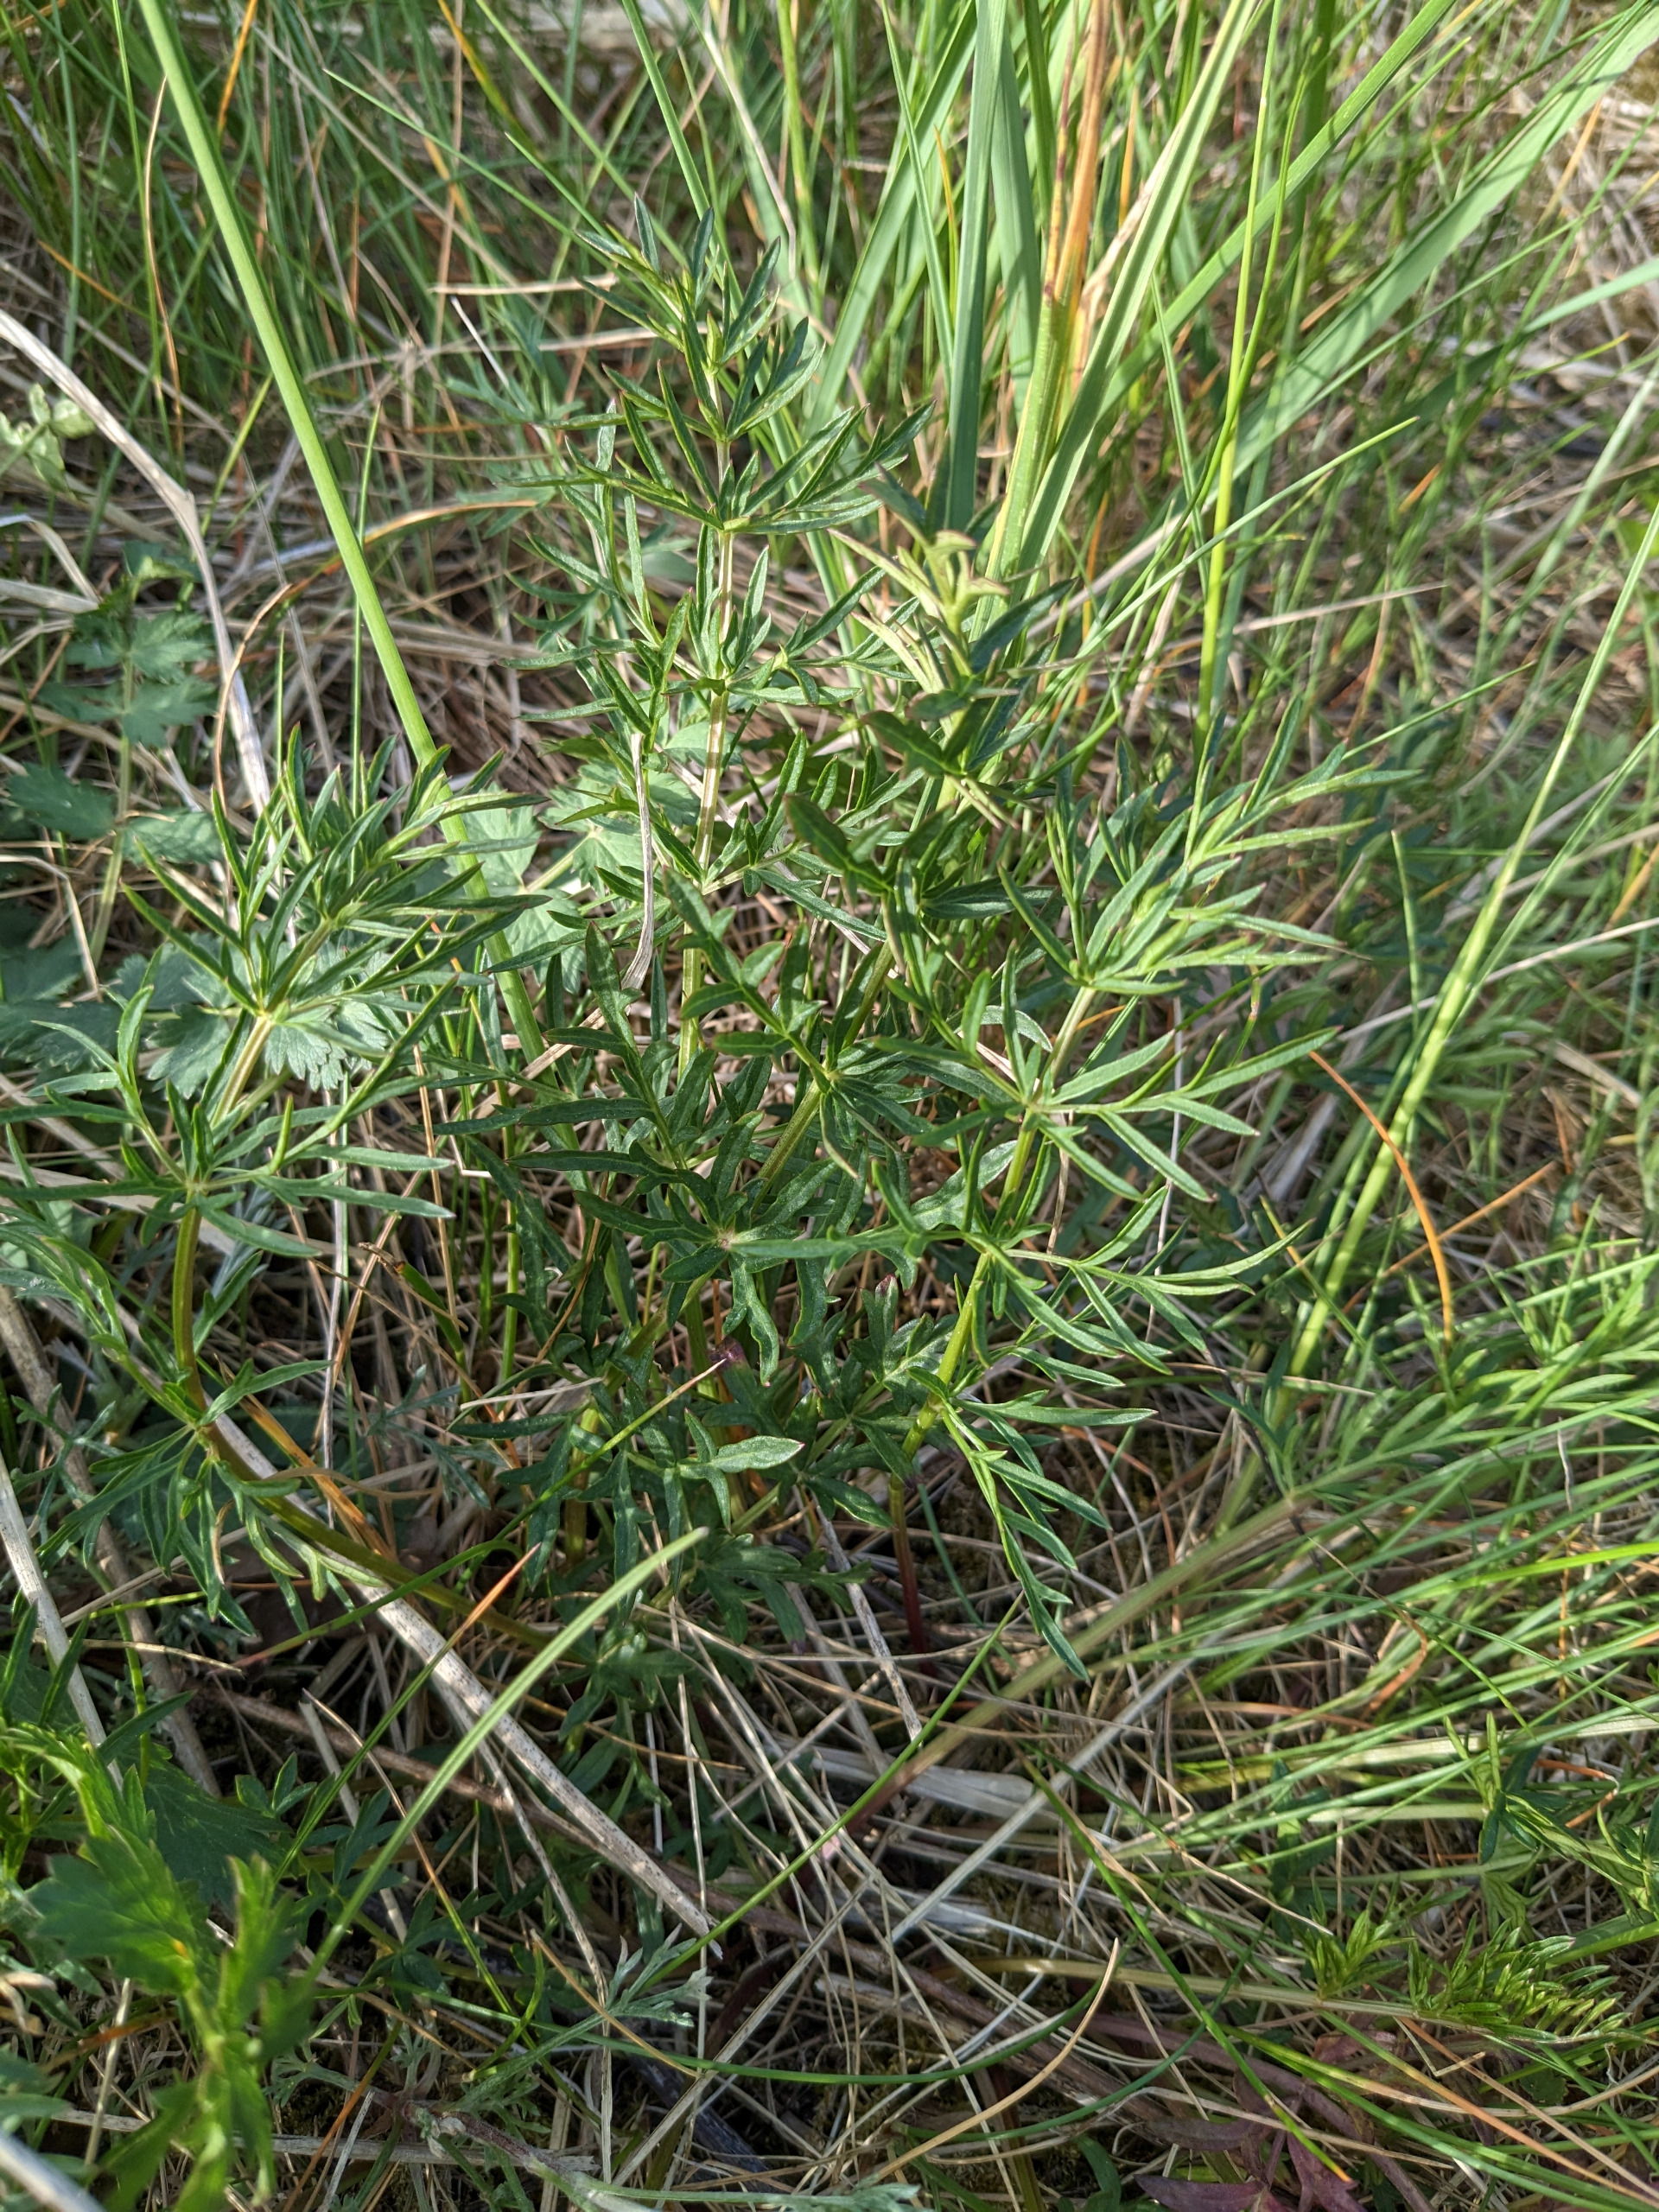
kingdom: Plantae
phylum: Tracheophyta
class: Magnoliopsida
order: Apiales
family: Apiaceae
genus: Pimpinella
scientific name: Pimpinella saxifraga
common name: Almindelig pimpinelle
